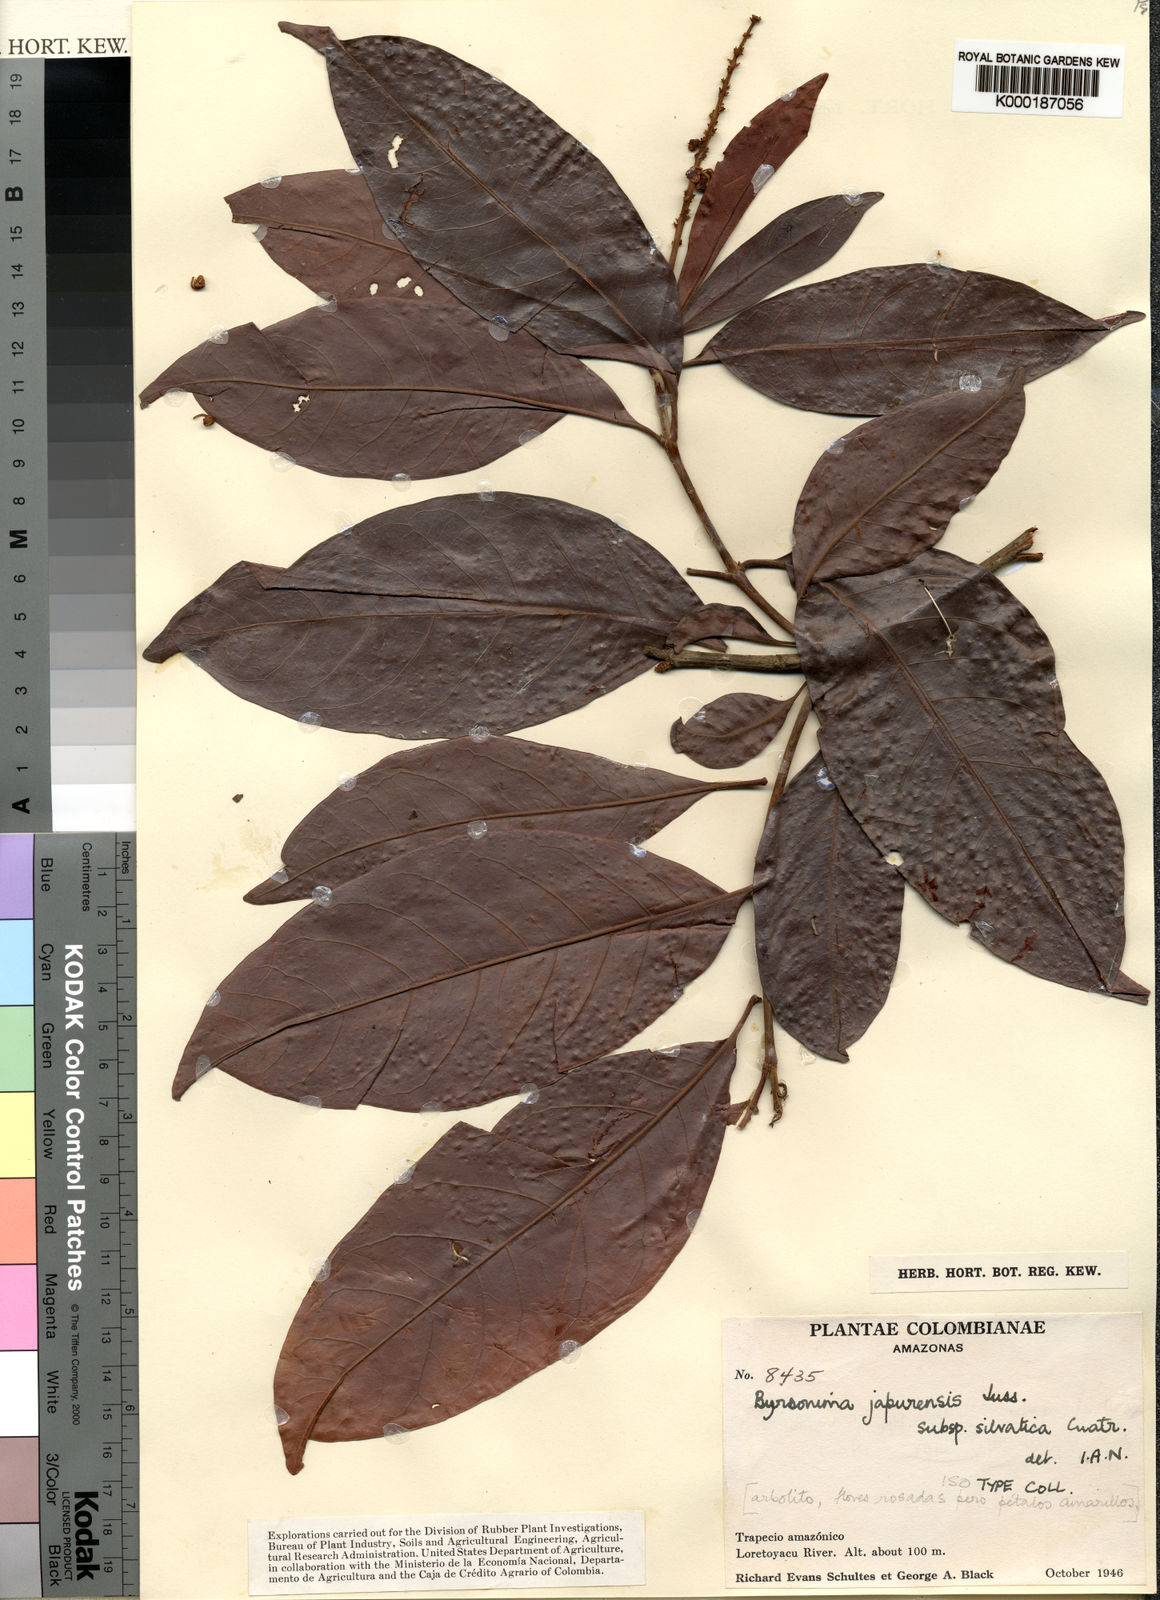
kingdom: Plantae
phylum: Tracheophyta
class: Magnoliopsida
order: Malpighiales
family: Malpighiaceae
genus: Byrsonima
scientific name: Byrsonima japurensis
